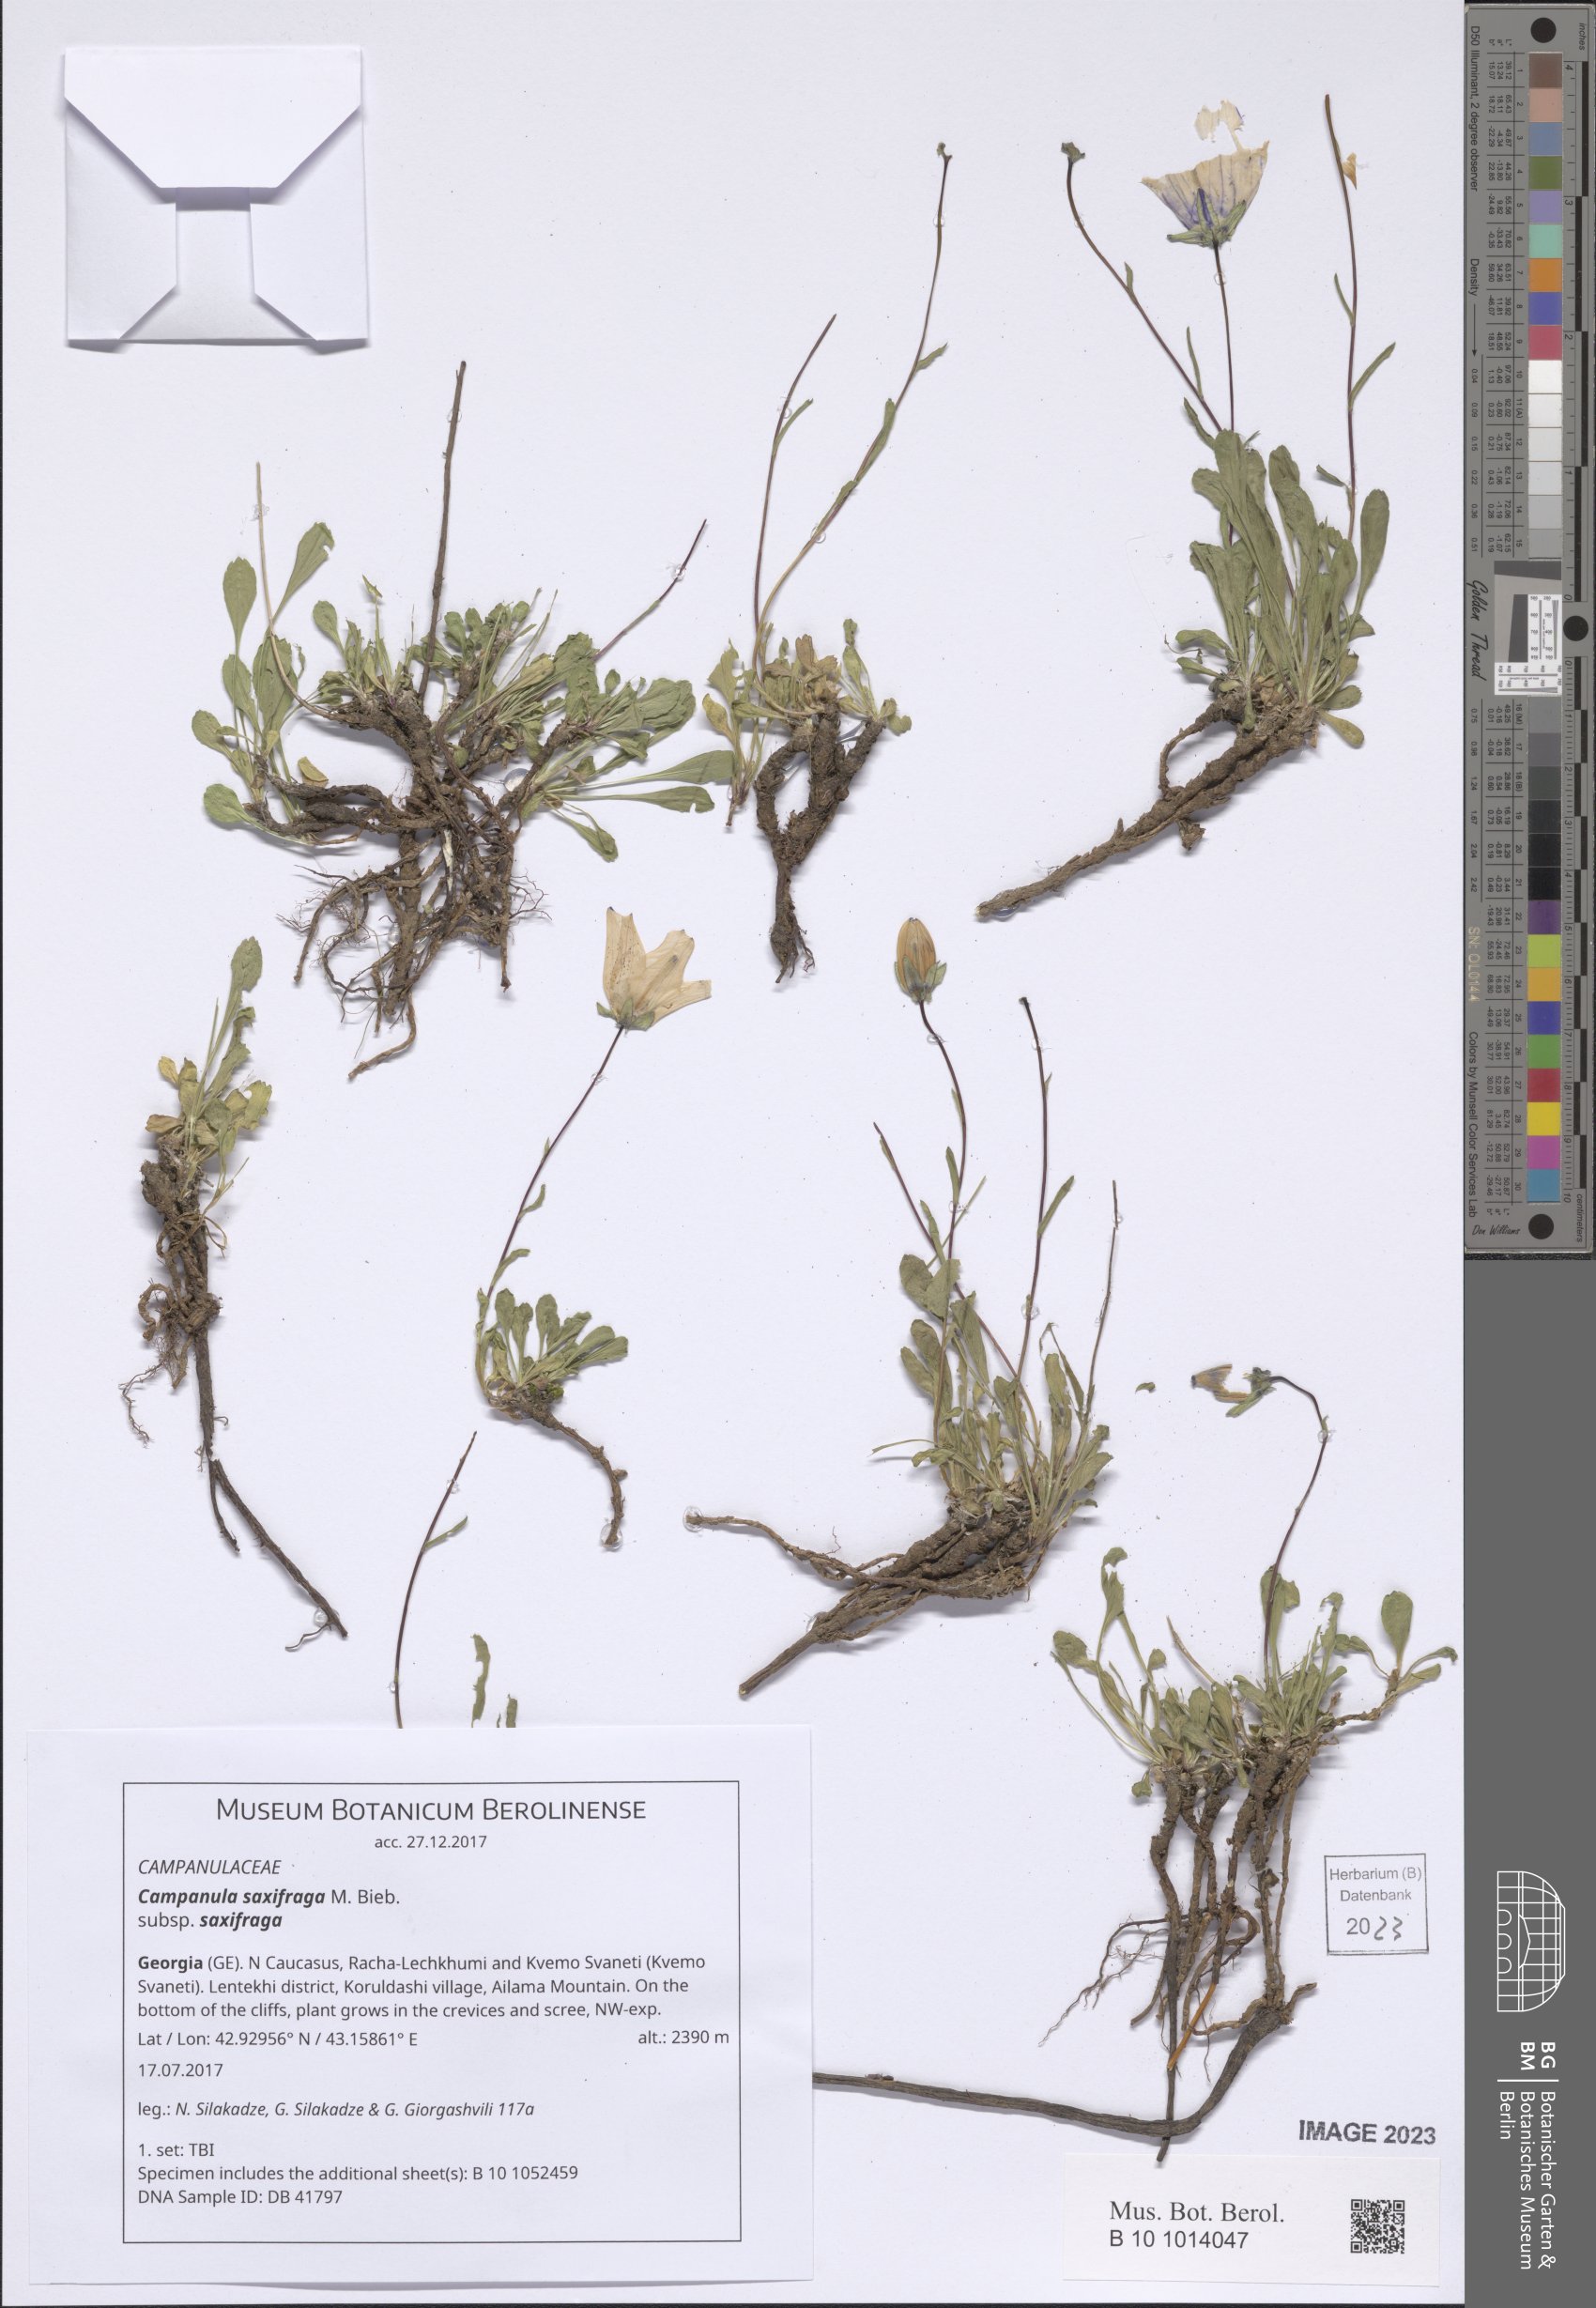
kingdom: Plantae
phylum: Tracheophyta
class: Magnoliopsida
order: Asterales
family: Campanulaceae
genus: Campanula
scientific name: Campanula saxifraga
